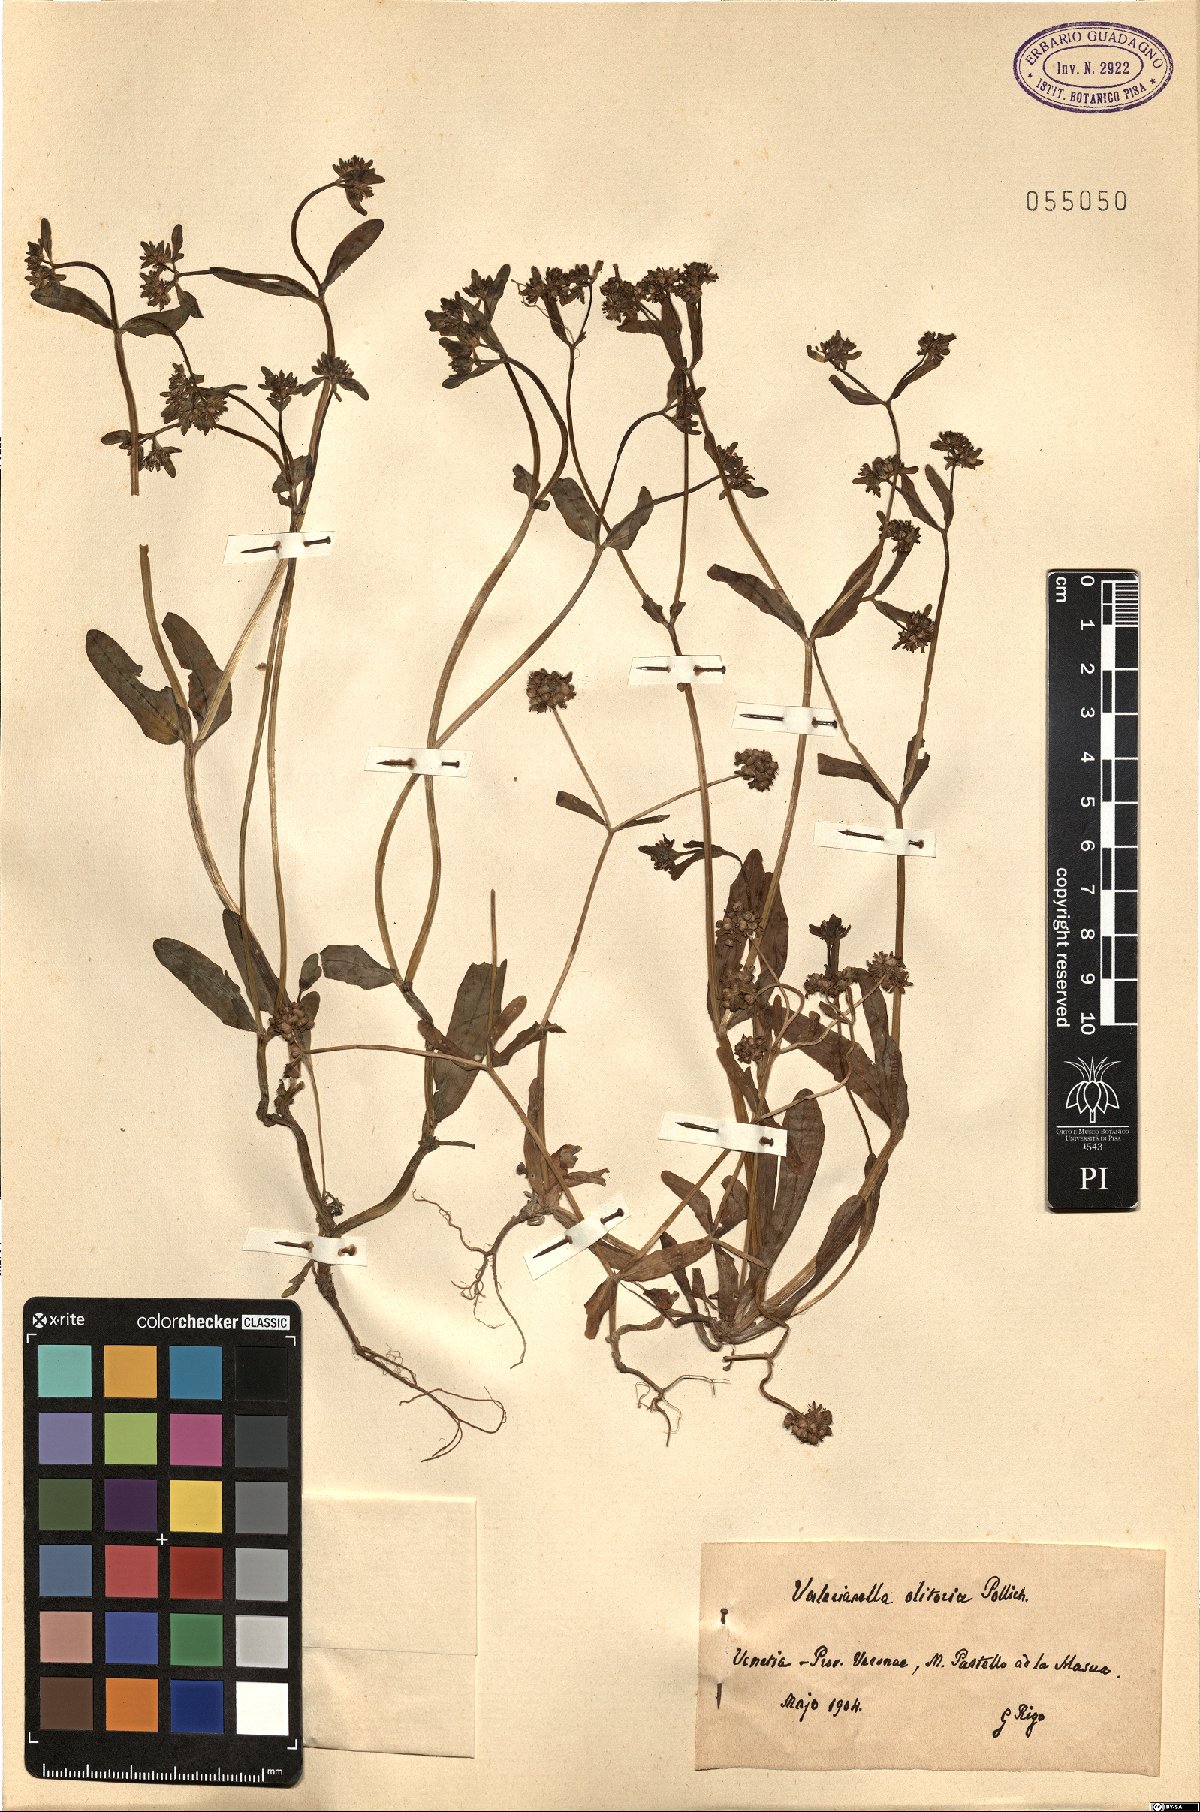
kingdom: Plantae
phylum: Tracheophyta
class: Magnoliopsida
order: Dipsacales
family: Caprifoliaceae
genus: Valerianella
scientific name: Valerianella locusta
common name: Common cornsalad
